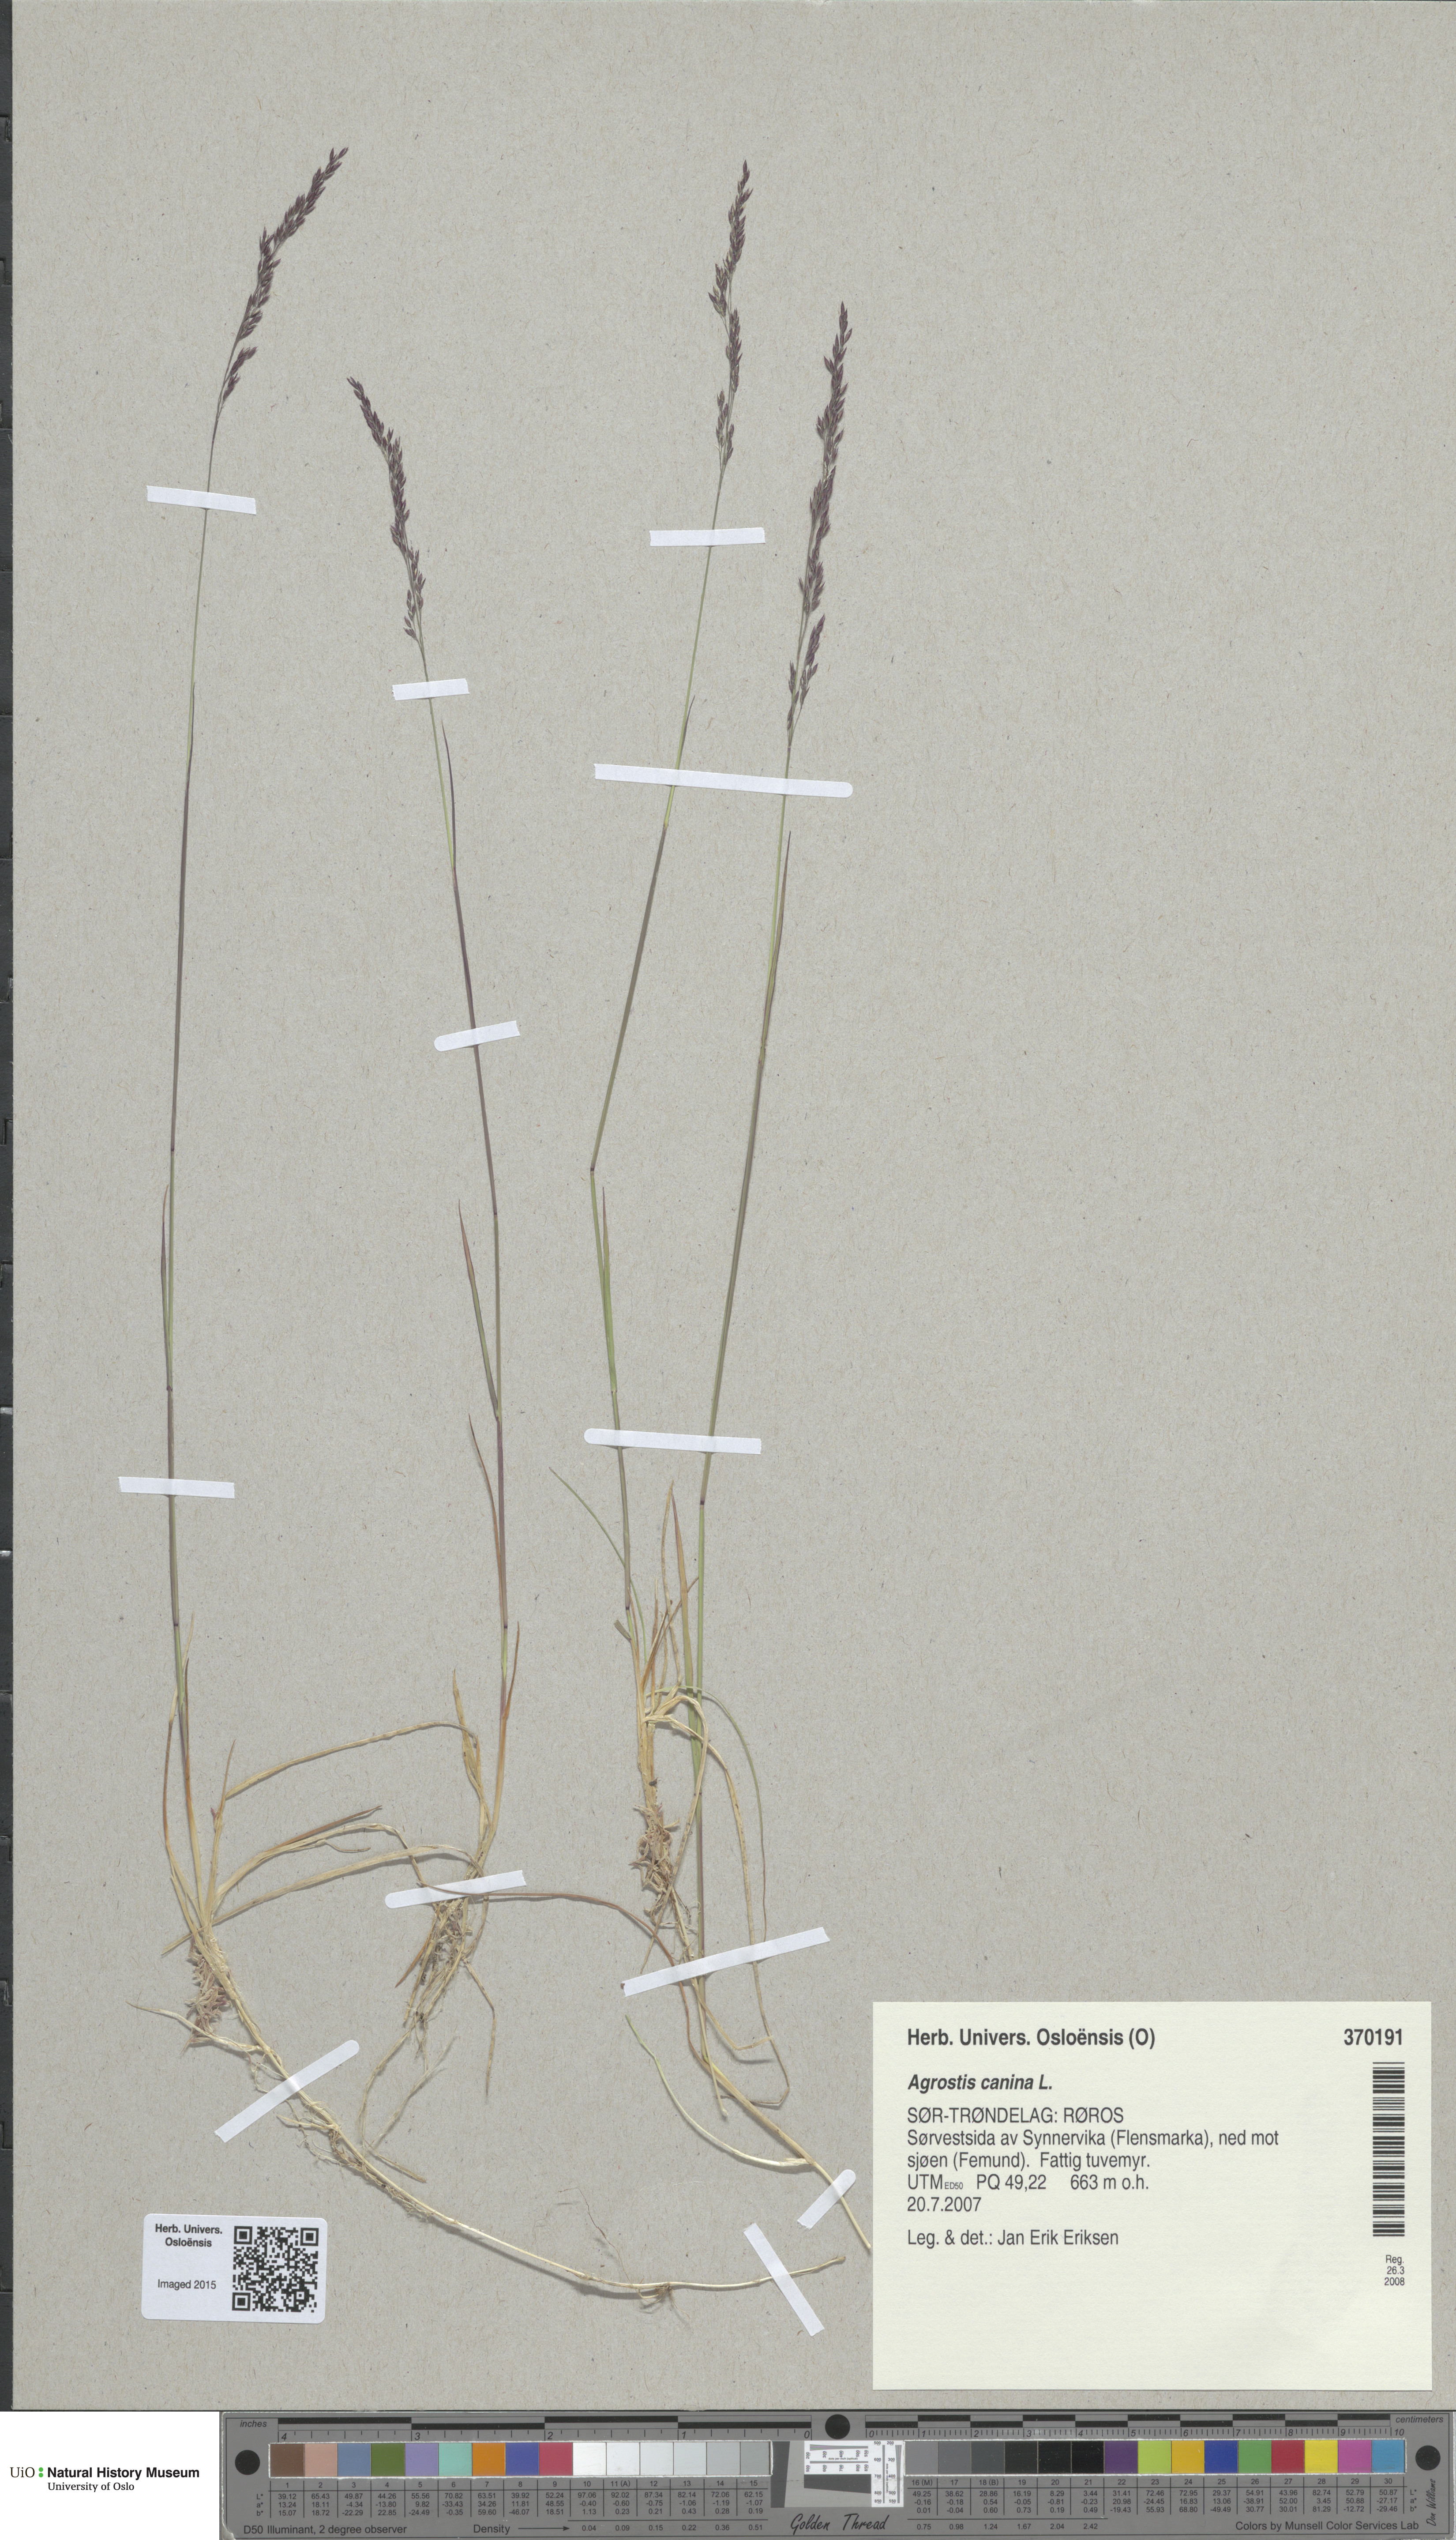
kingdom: Plantae
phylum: Tracheophyta
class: Liliopsida
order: Poales
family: Poaceae
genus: Agrostis
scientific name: Agrostis canina
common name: Velvet bent
